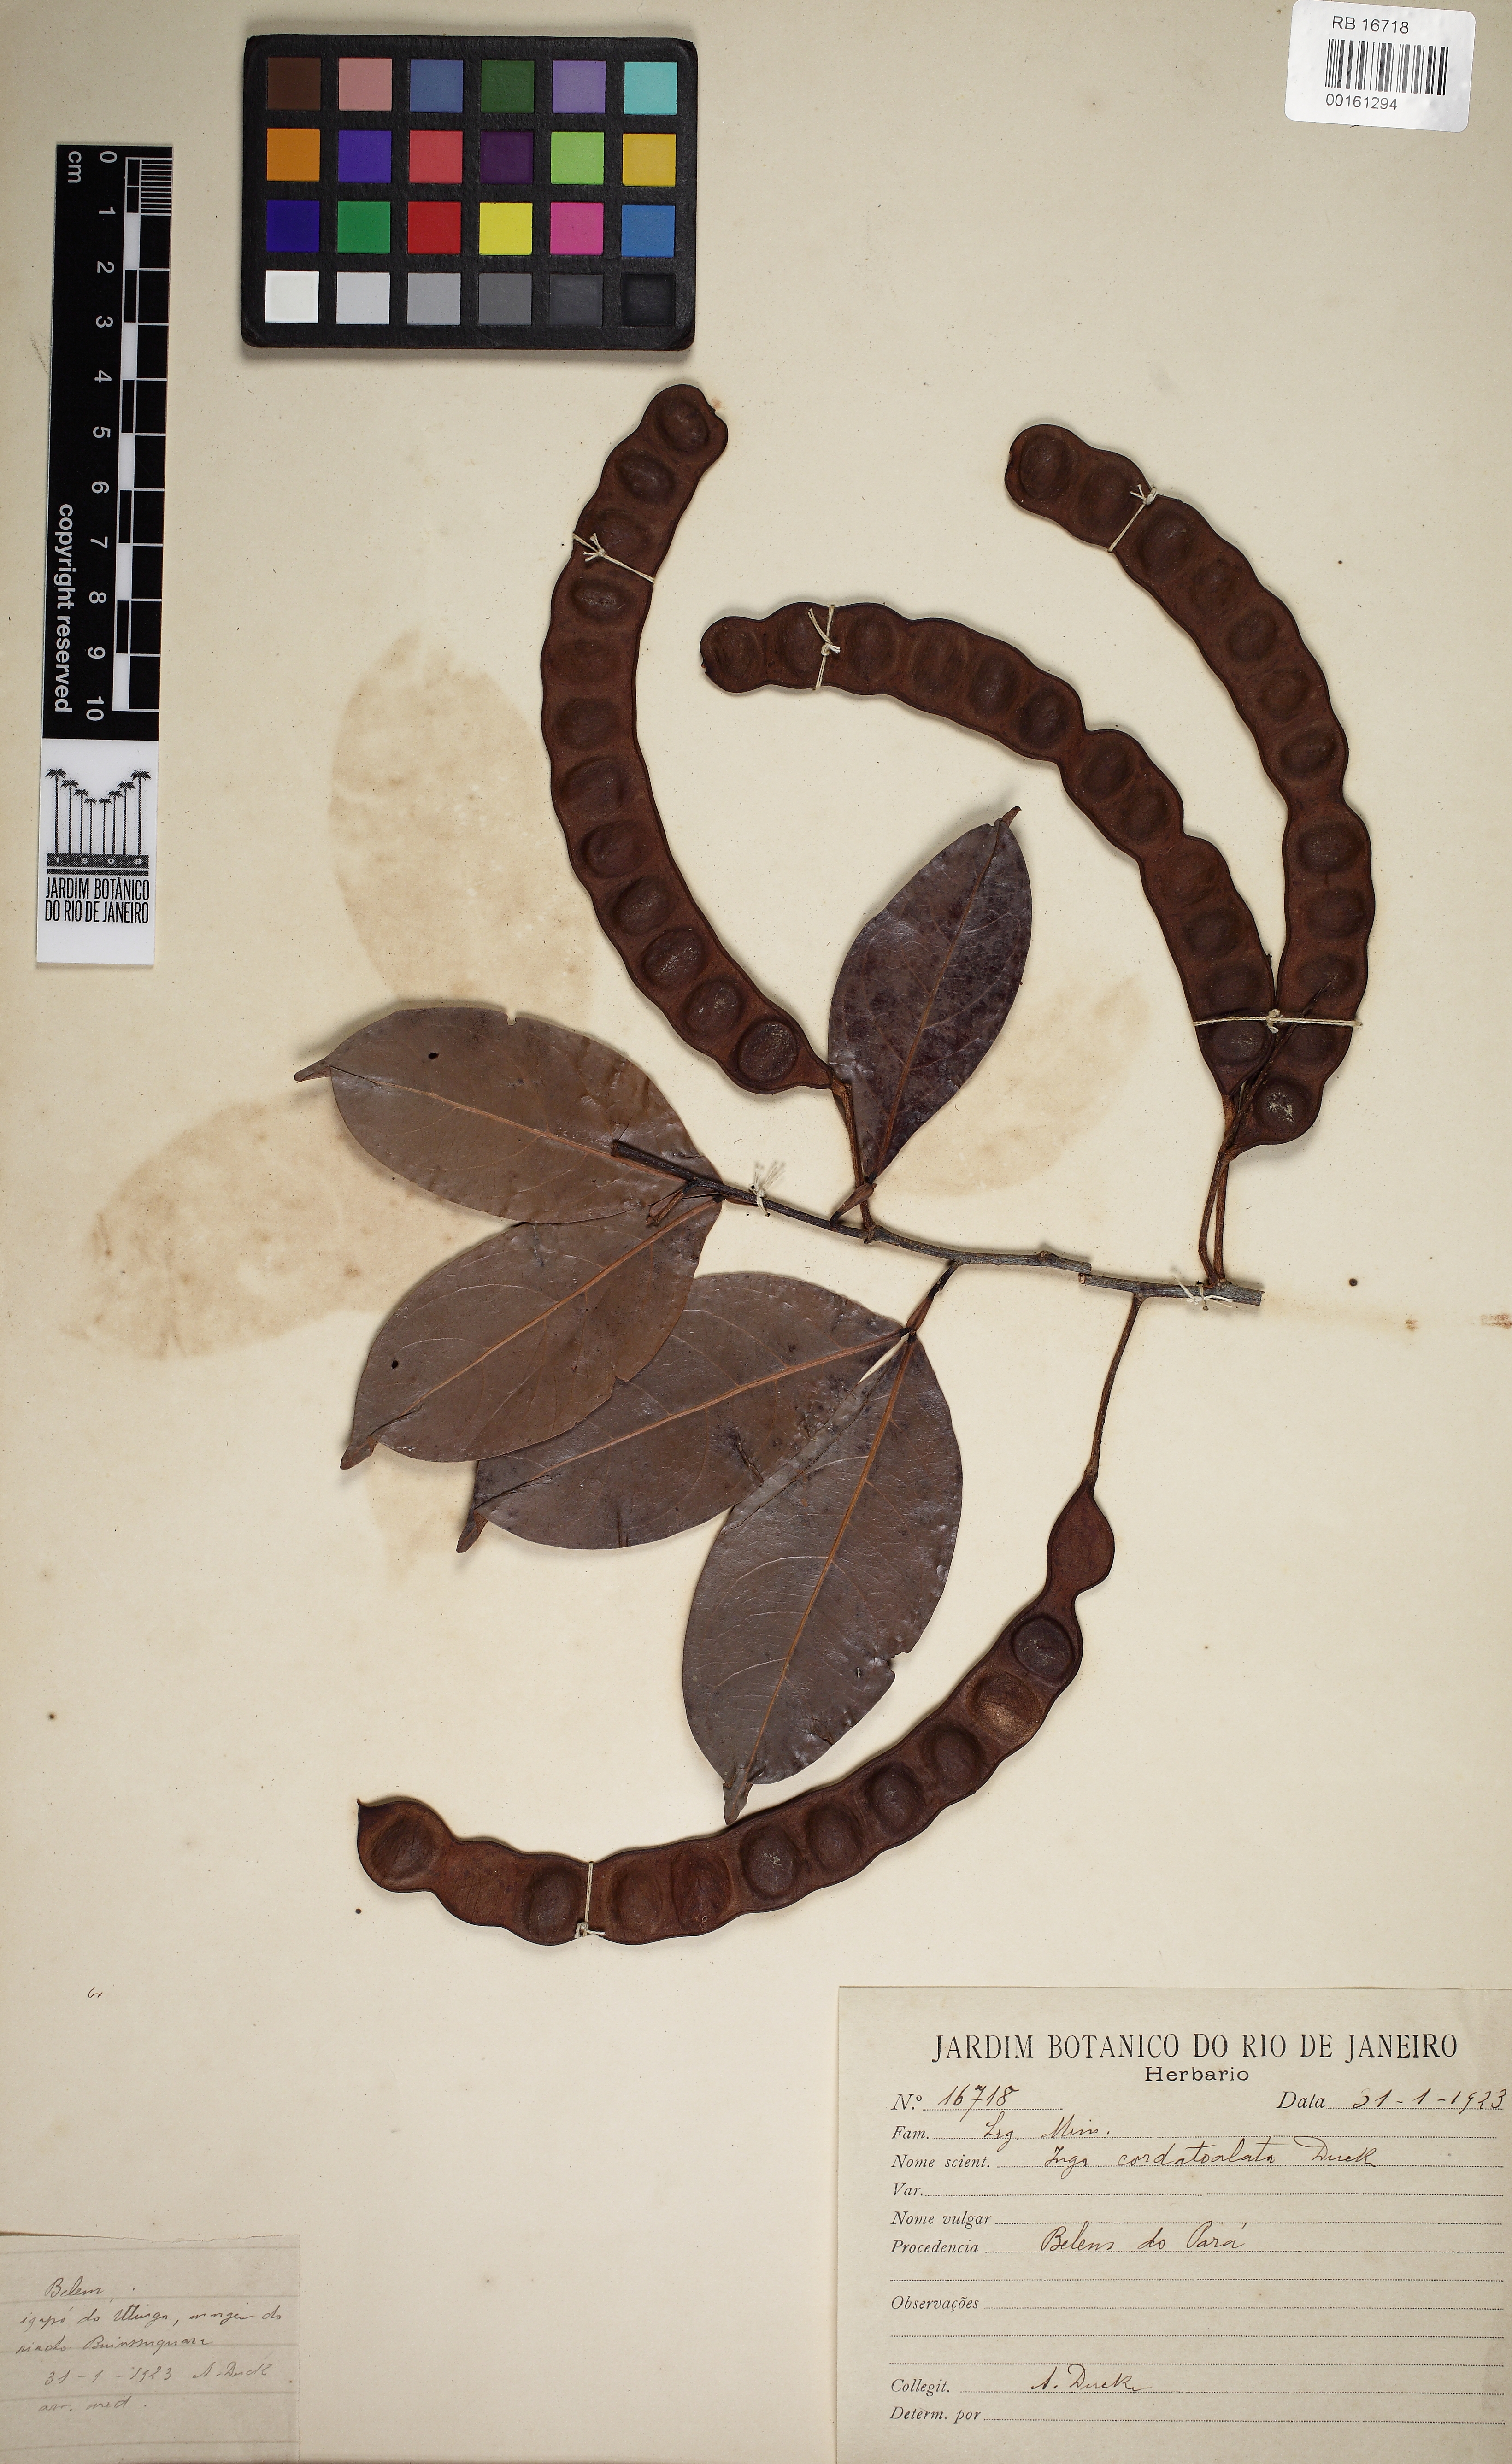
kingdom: Plantae
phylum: Tracheophyta
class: Magnoliopsida
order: Fabales
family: Fabaceae
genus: Inga
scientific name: Inga cordatoalata
